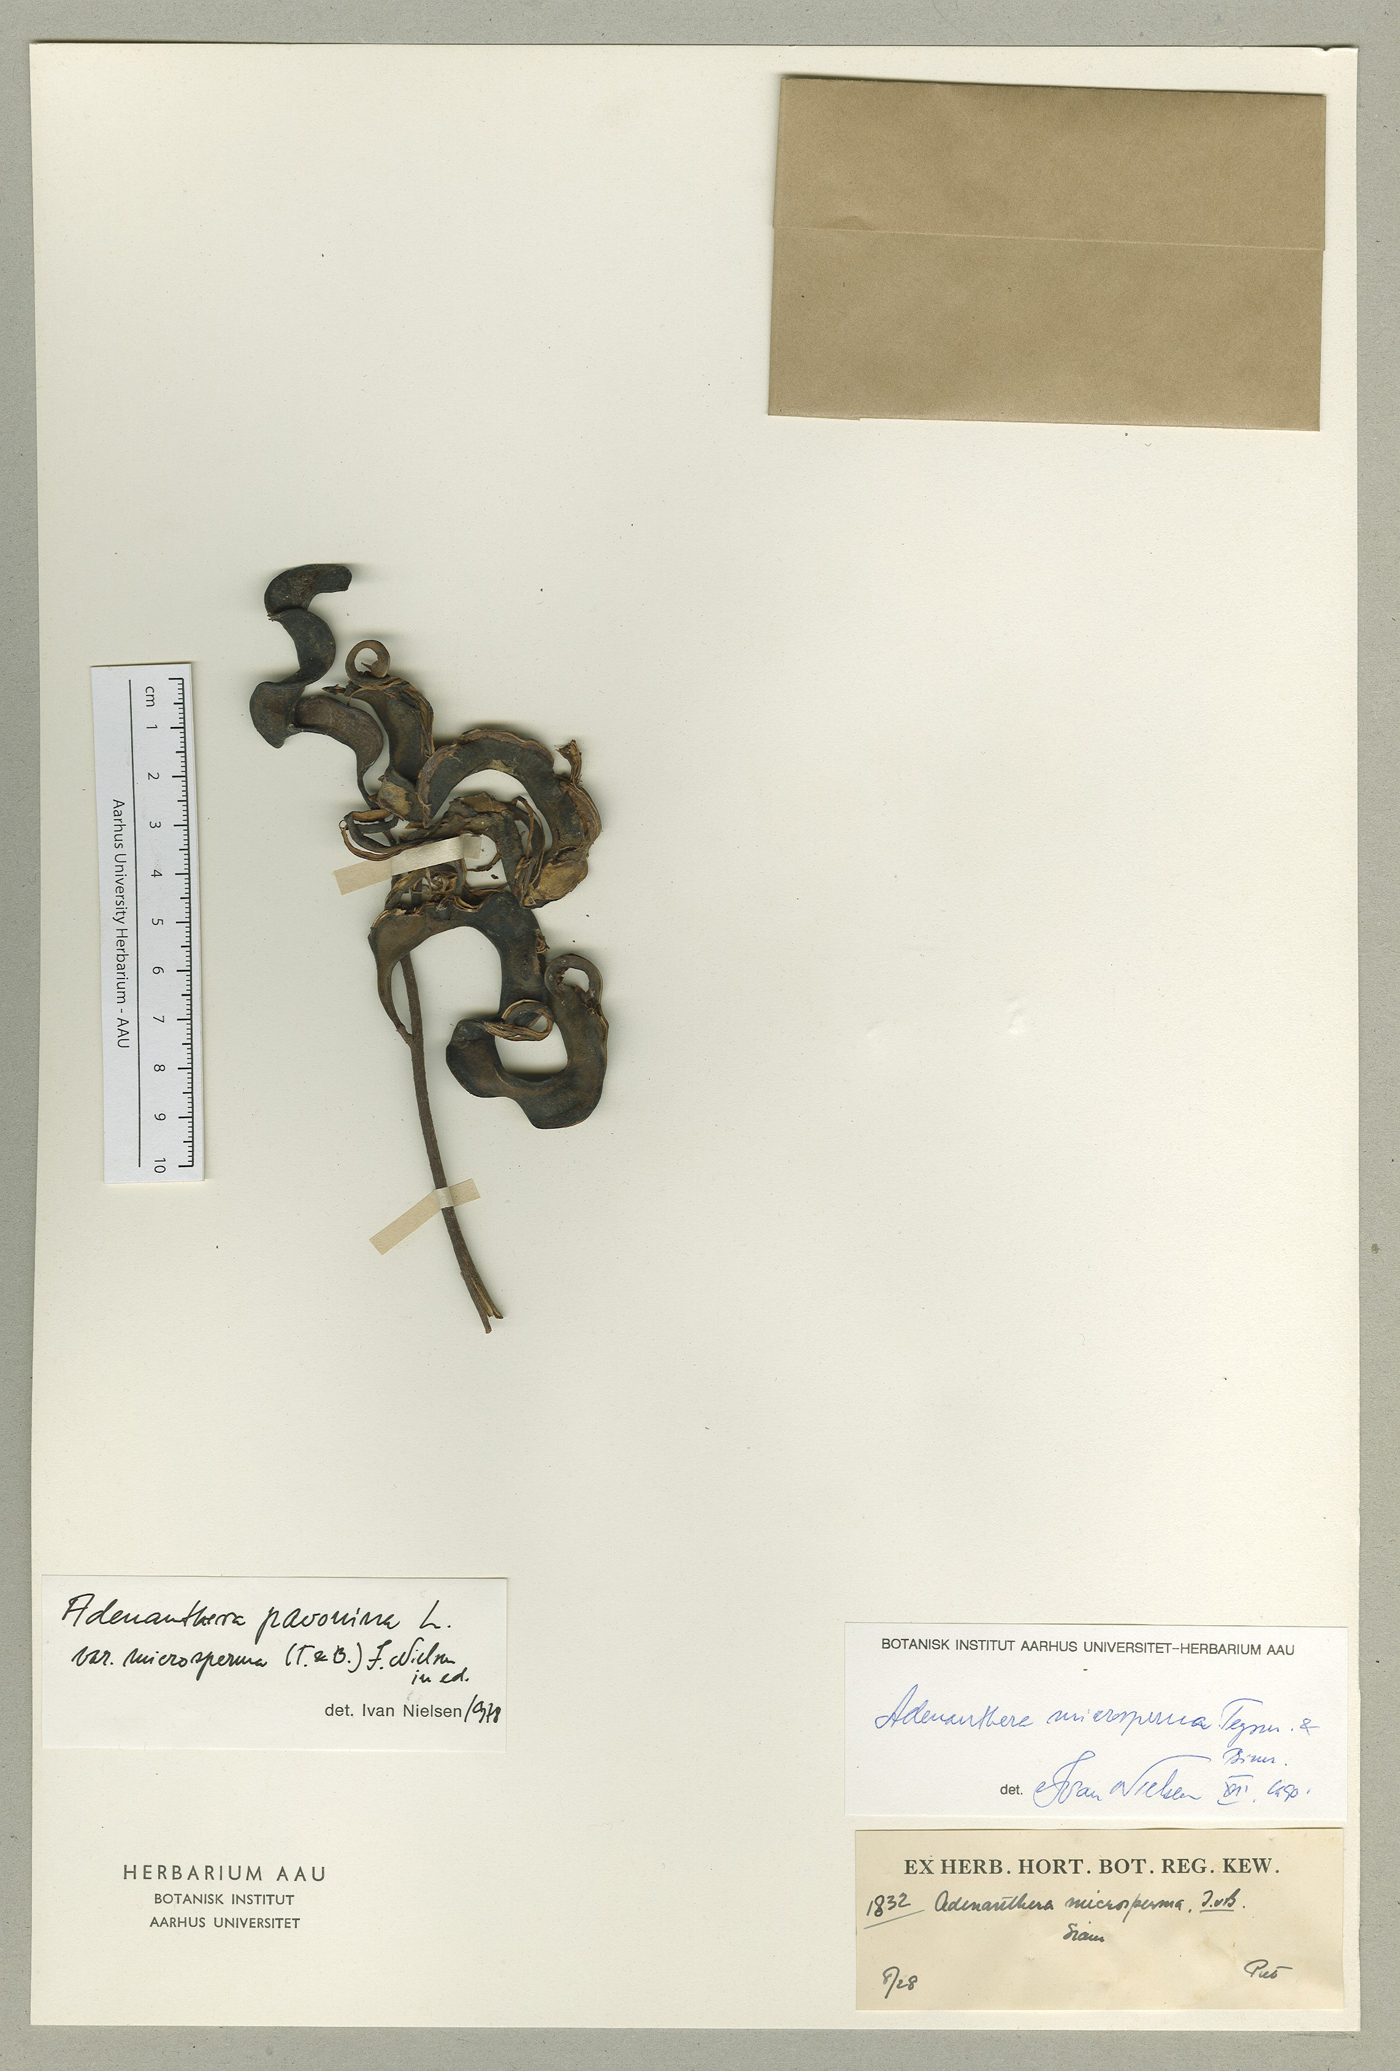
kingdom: Plantae
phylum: Tracheophyta
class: Magnoliopsida
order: Fabales
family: Fabaceae
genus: Adenanthera
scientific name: Adenanthera microsperma
